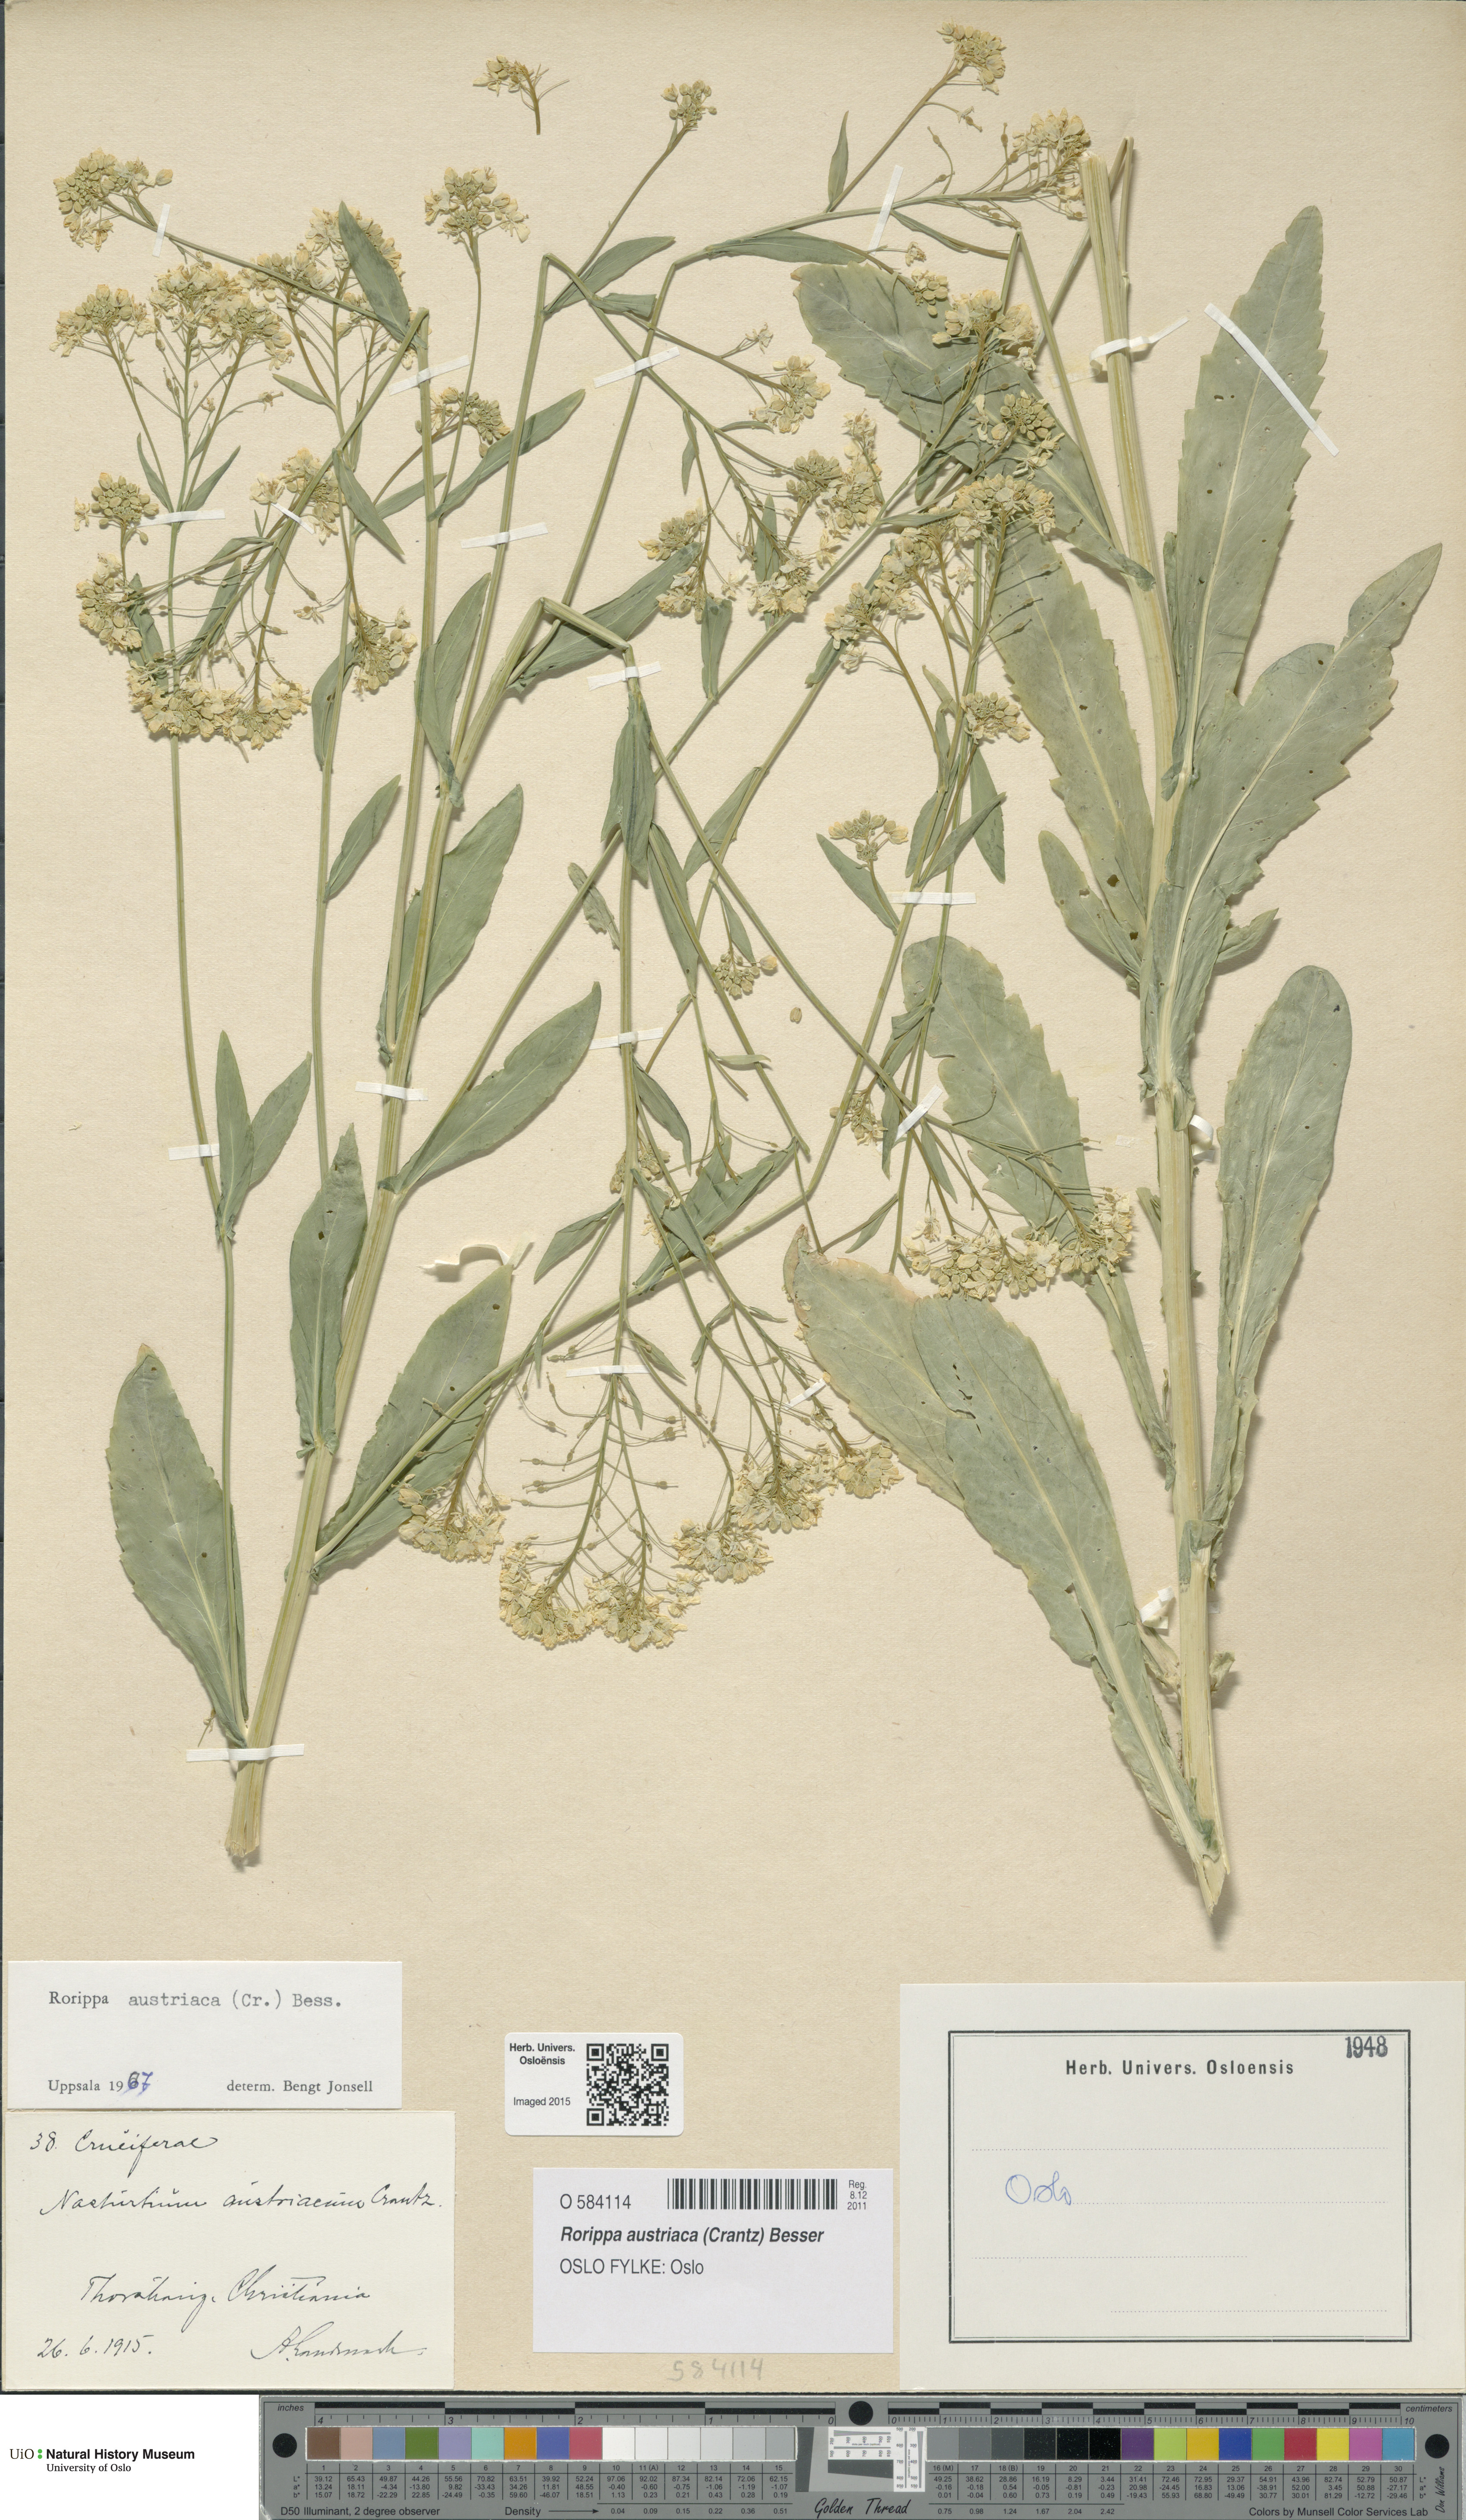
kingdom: Plantae
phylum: Tracheophyta
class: Magnoliopsida
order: Brassicales
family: Brassicaceae
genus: Rorippa
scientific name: Rorippa austriaca
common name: Austrian yellow-cress
